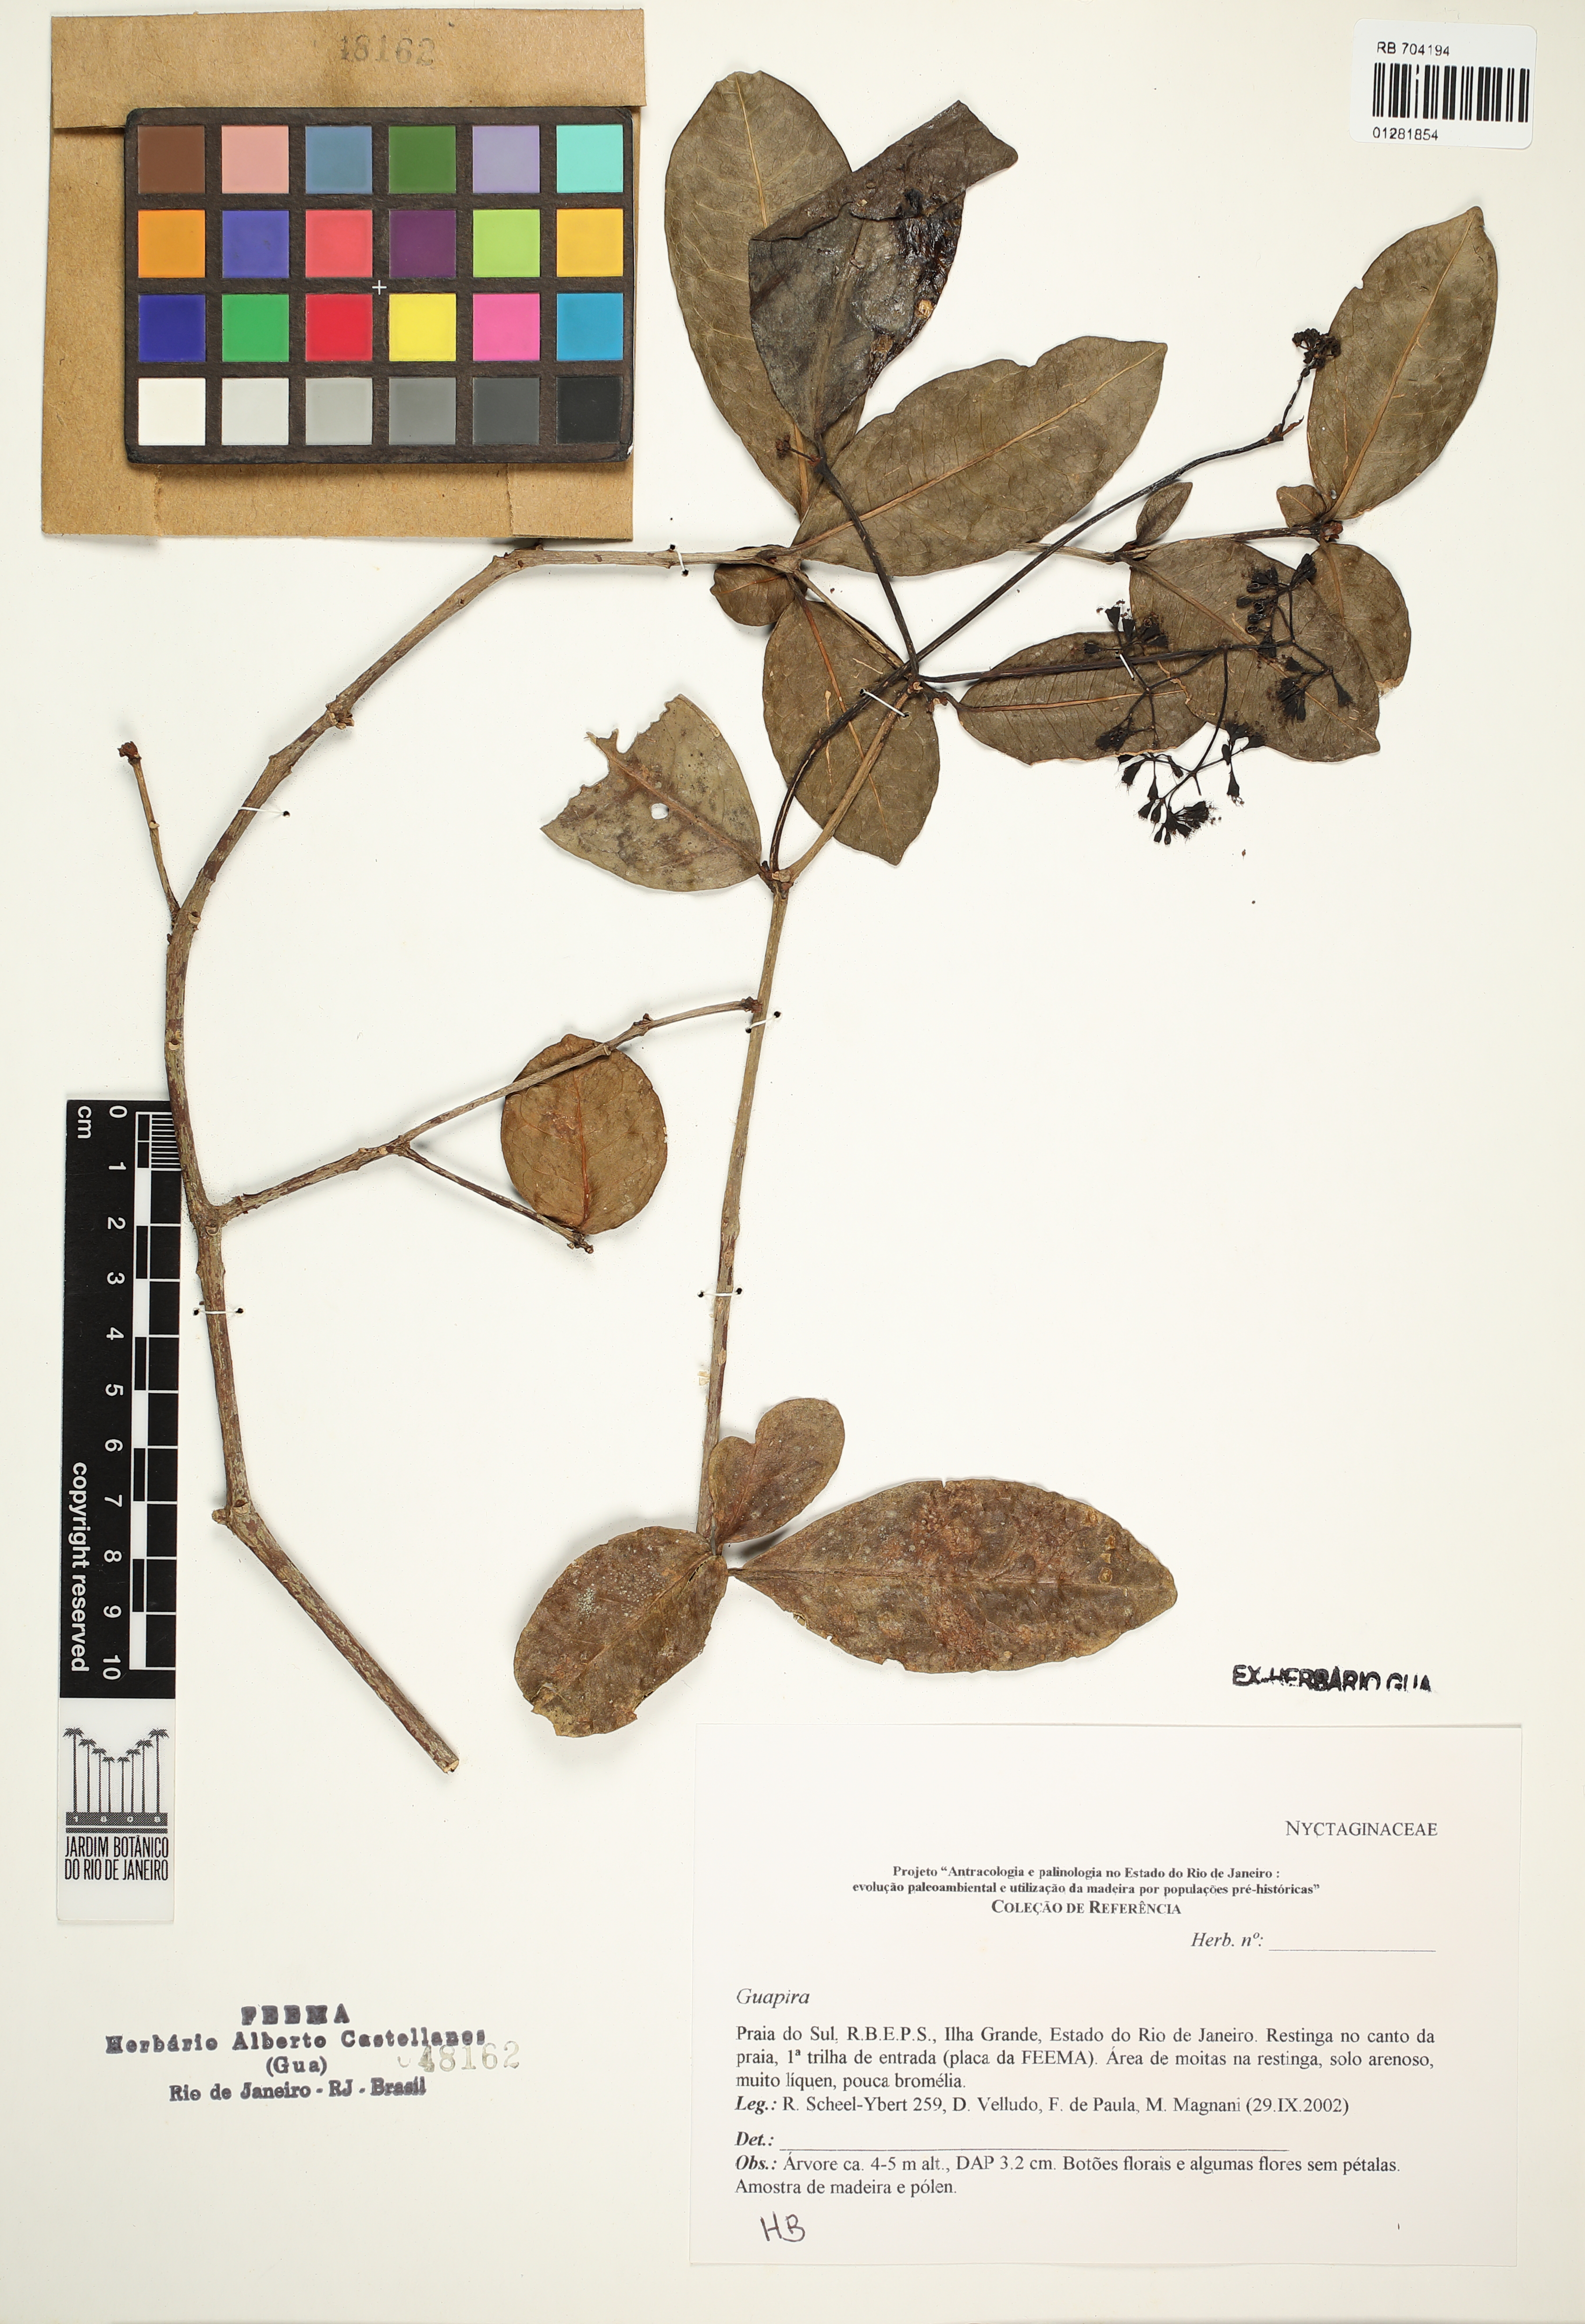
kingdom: Plantae
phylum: Tracheophyta
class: Magnoliopsida
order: Caryophyllales
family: Nyctaginaceae
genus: Guapira
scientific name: Guapira
